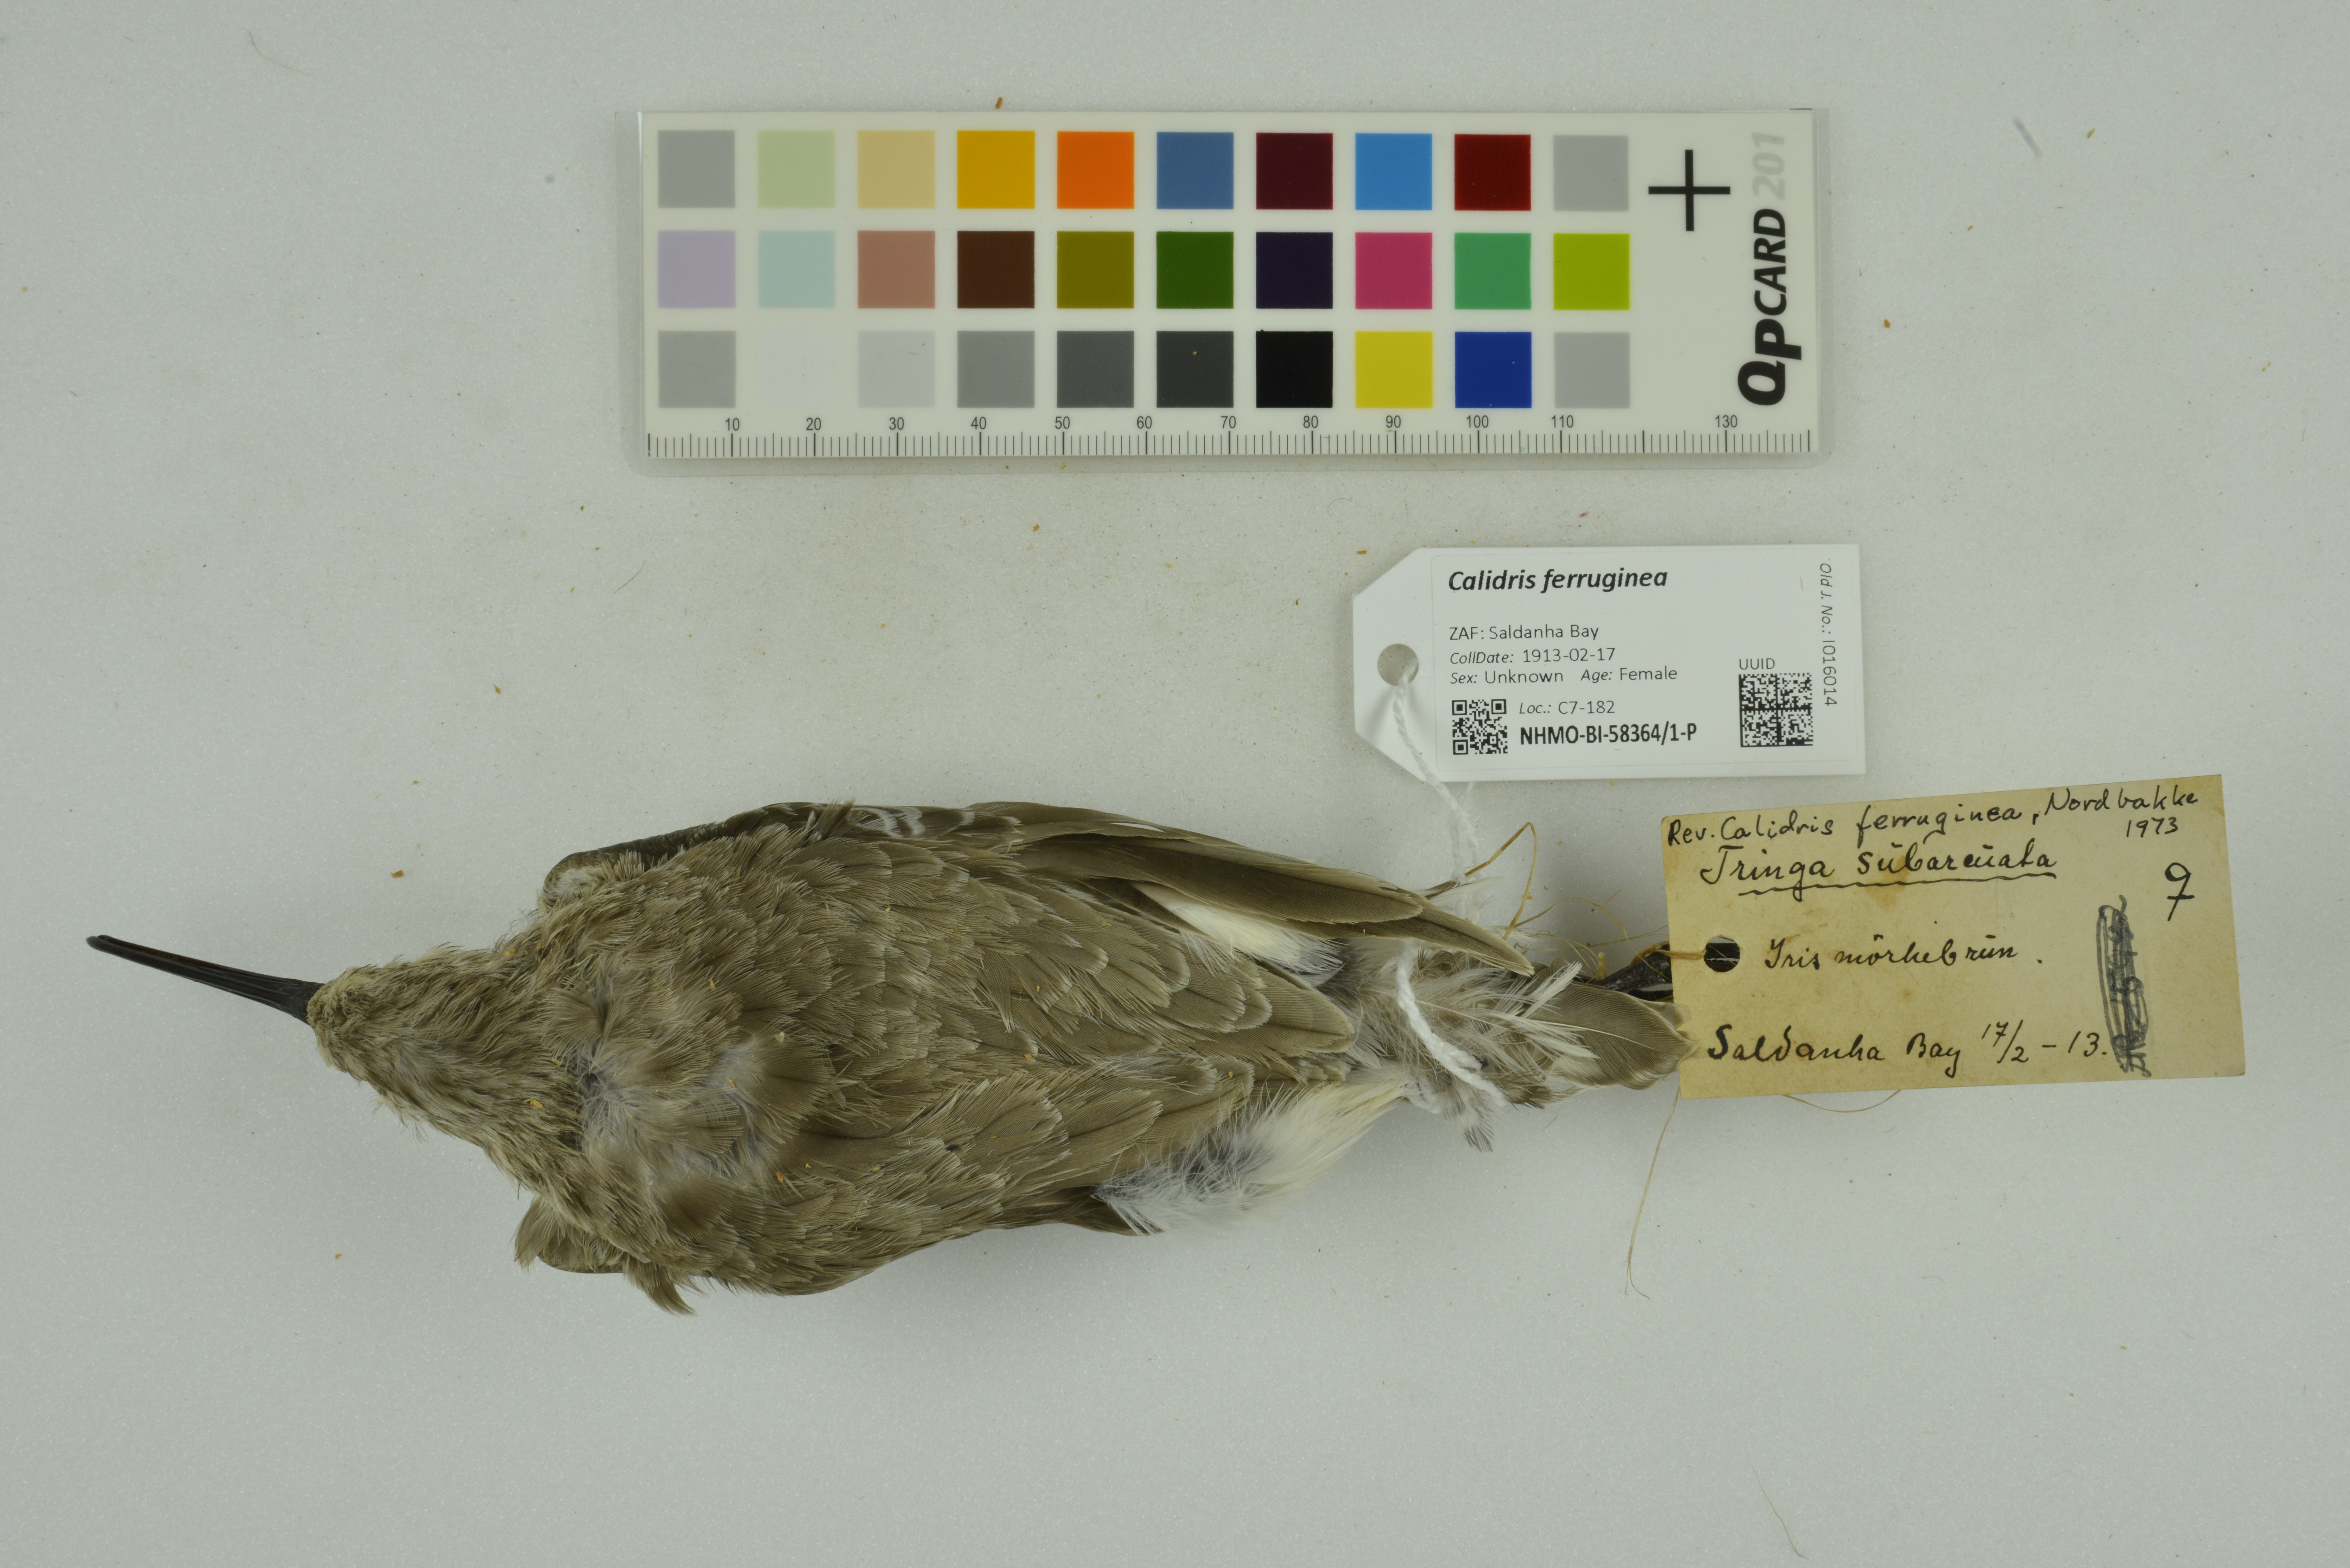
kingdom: Animalia
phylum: Chordata
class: Aves
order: Charadriiformes
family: Scolopacidae
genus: Calidris
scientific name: Calidris ferruginea
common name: Curlew sandpiper
